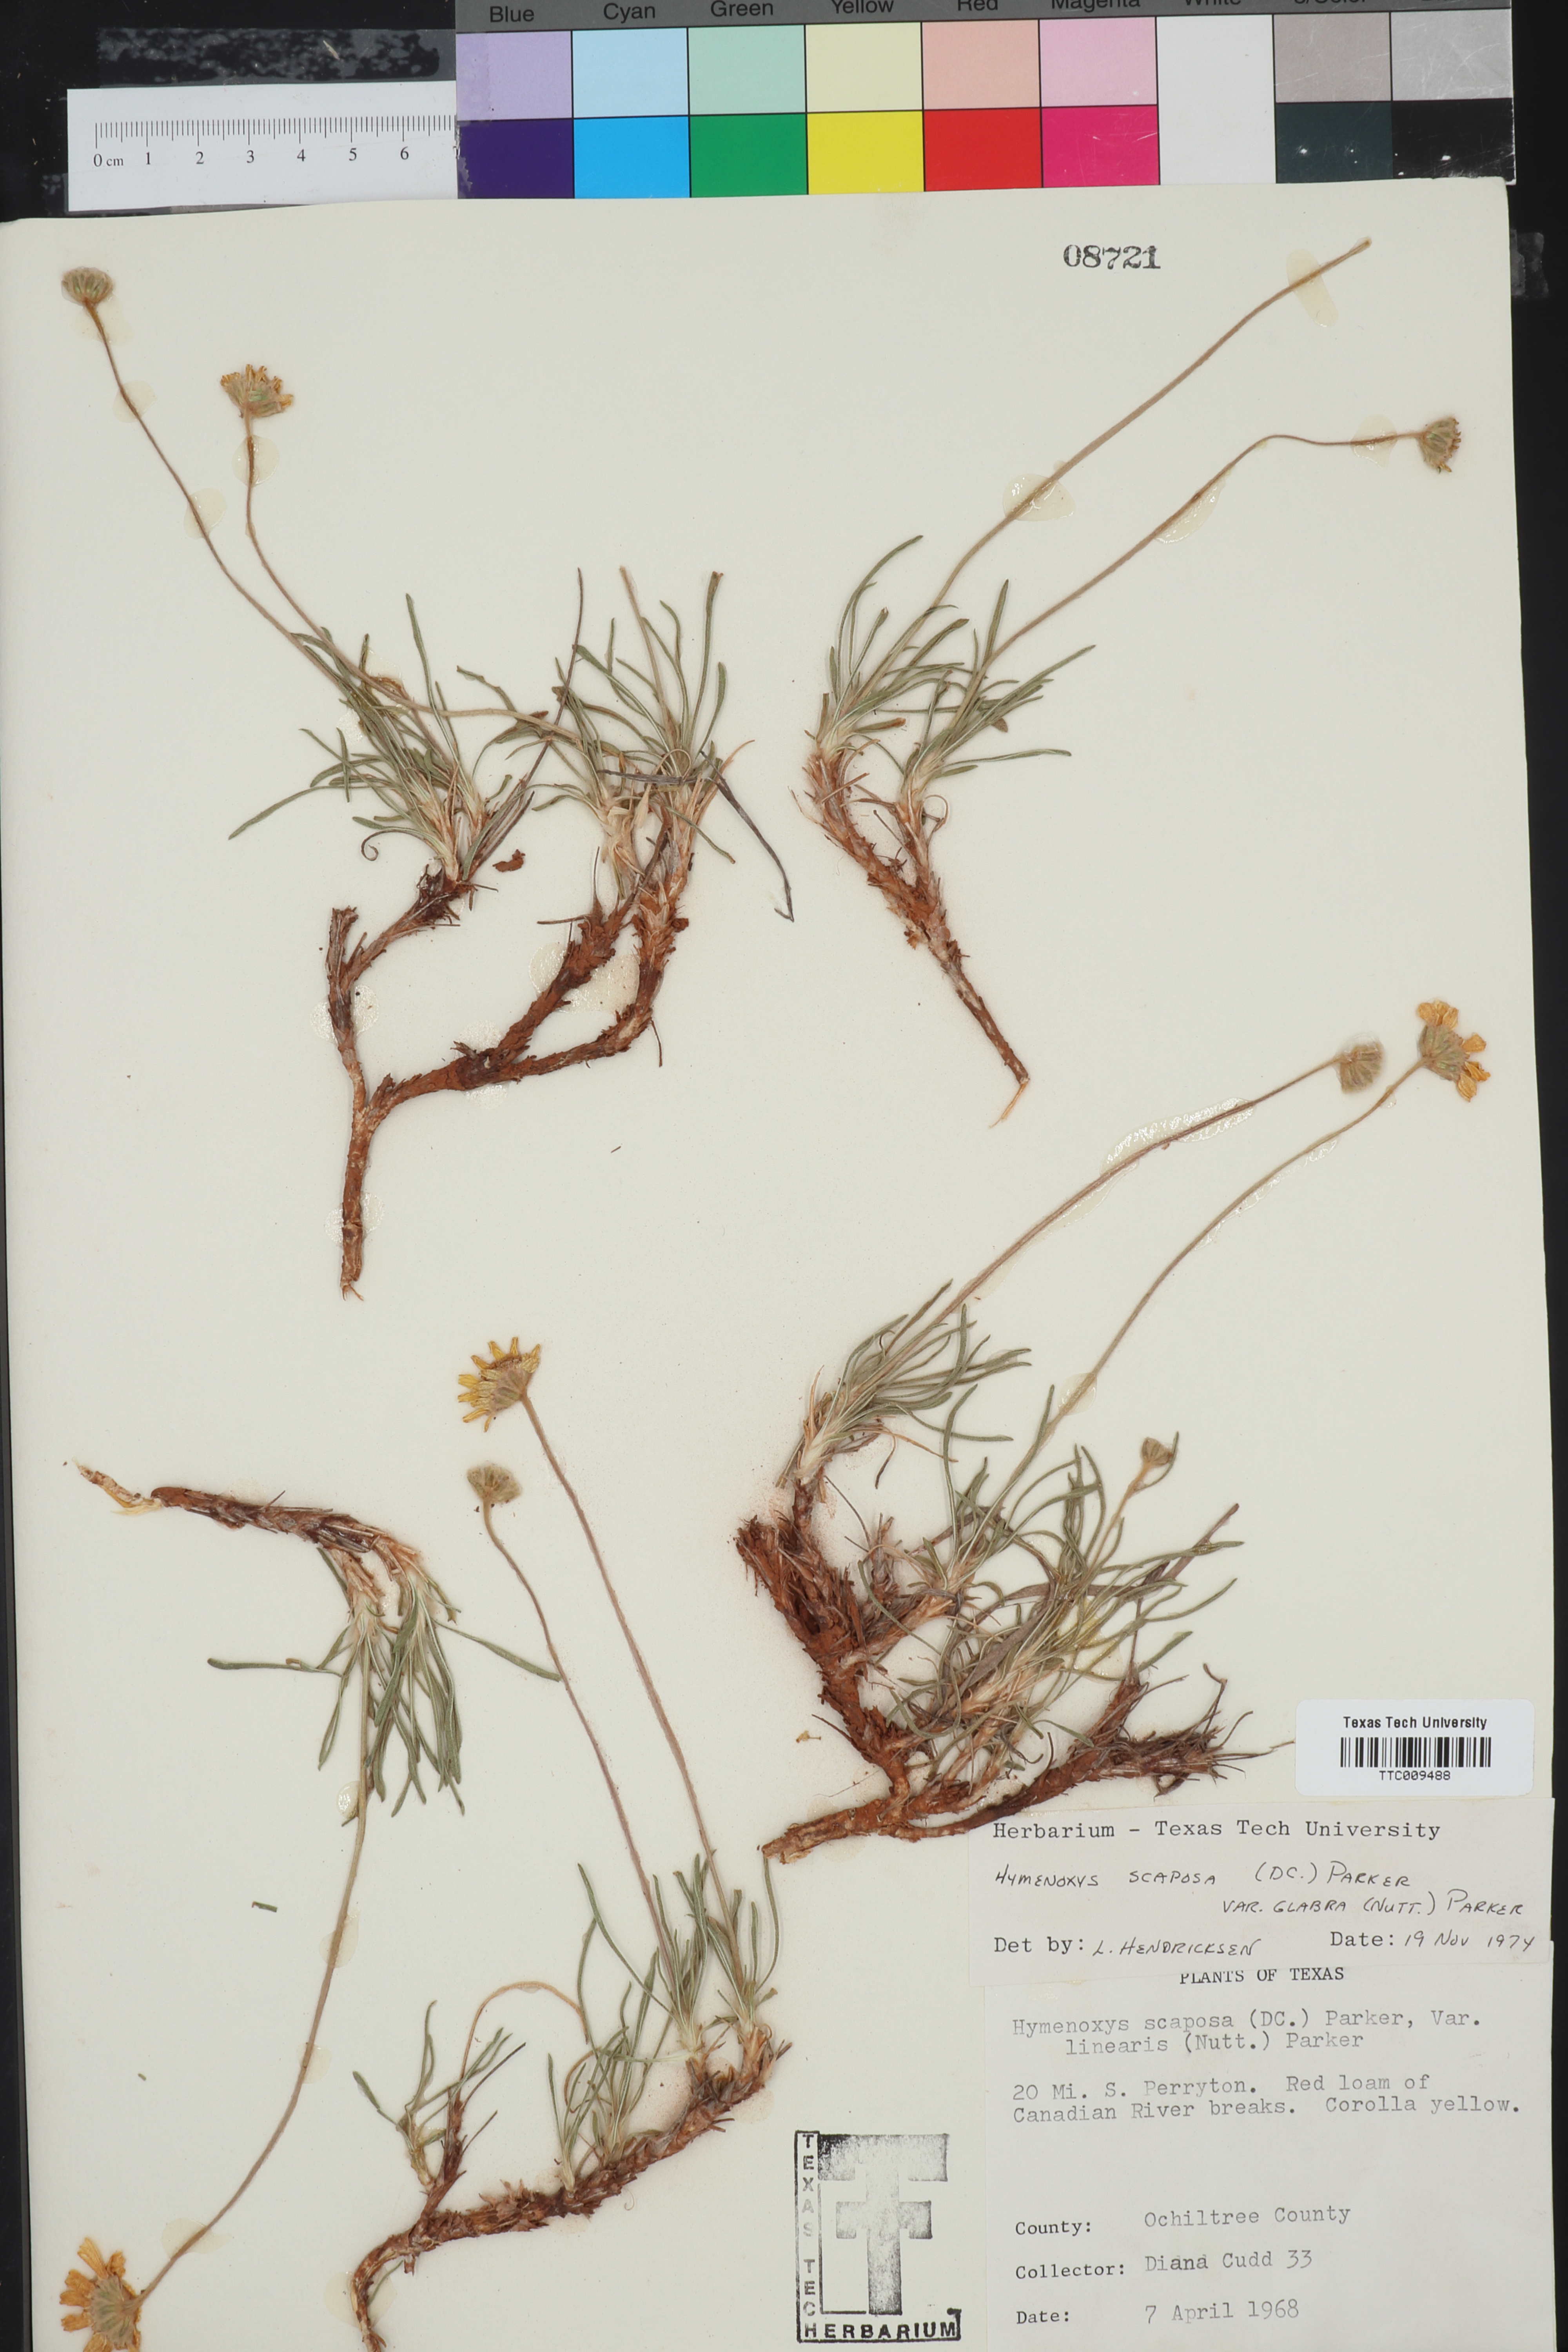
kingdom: Plantae
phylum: Tracheophyta
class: Magnoliopsida
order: Asterales
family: Asteraceae
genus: Tetraneuris
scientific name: Tetraneuris scaposa
